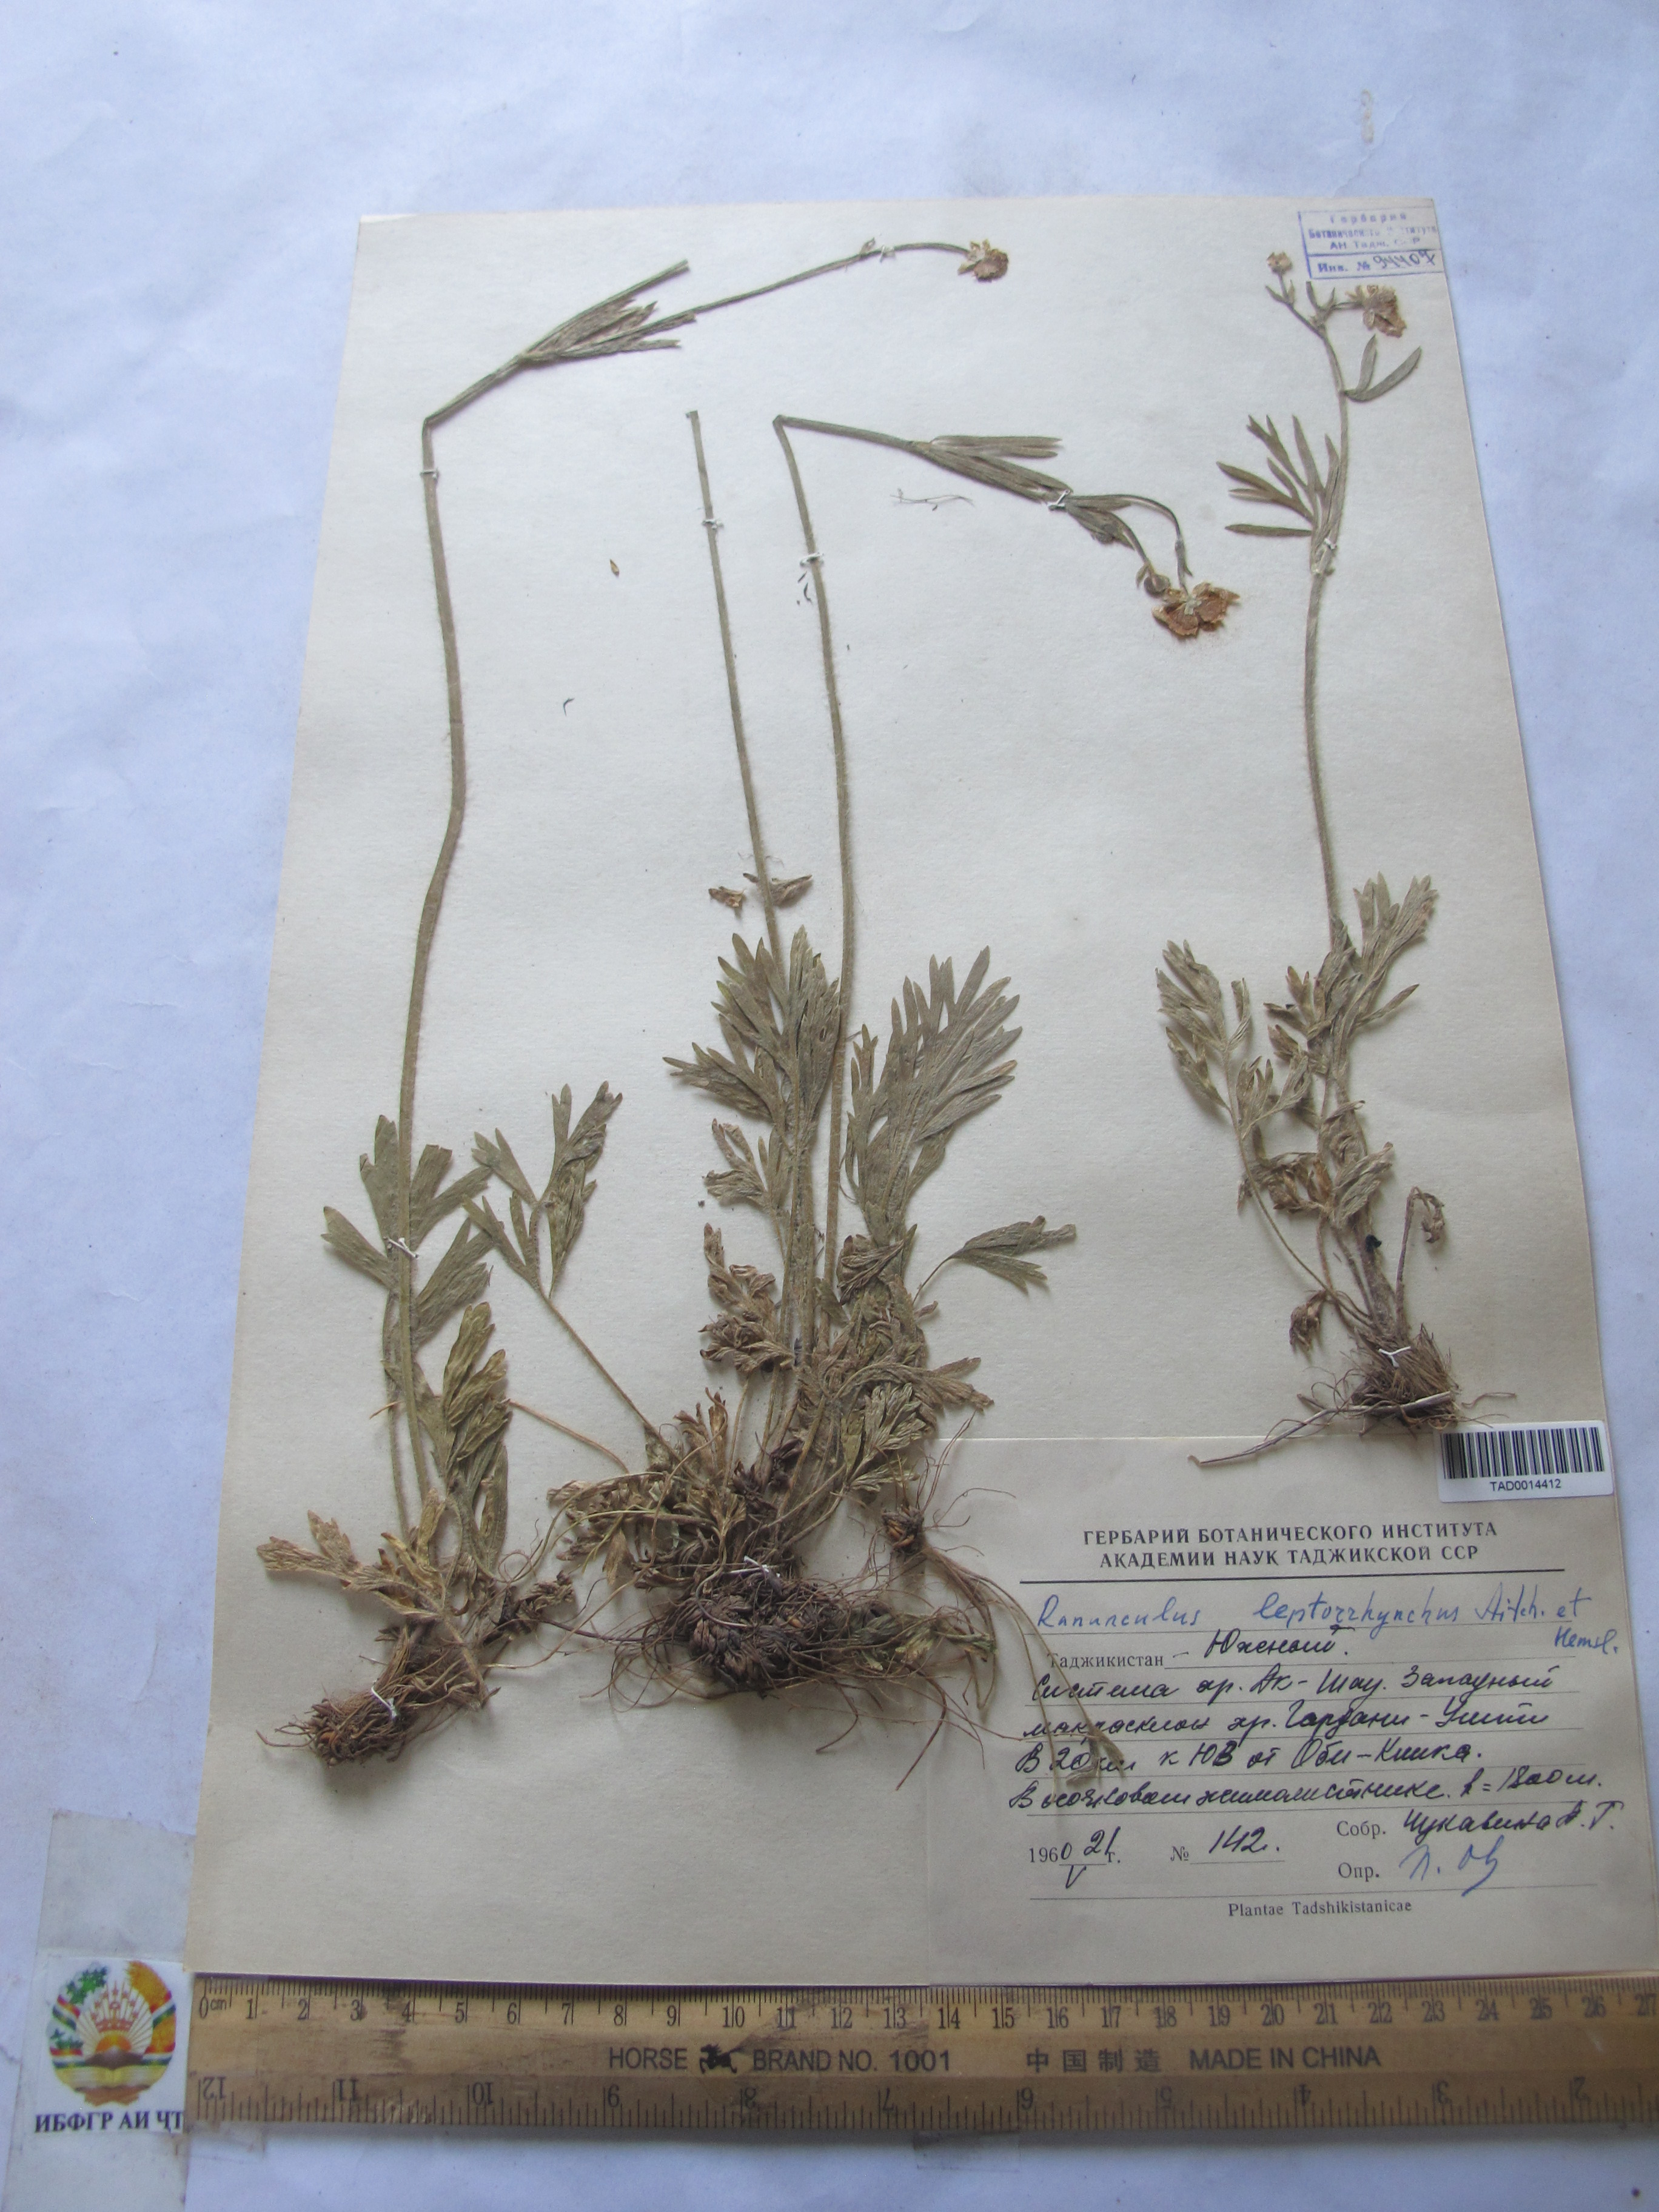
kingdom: Plantae
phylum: Tracheophyta
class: Magnoliopsida
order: Ranunculales
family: Ranunculaceae
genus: Ranunculus
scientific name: Ranunculus leptorrhynchus
